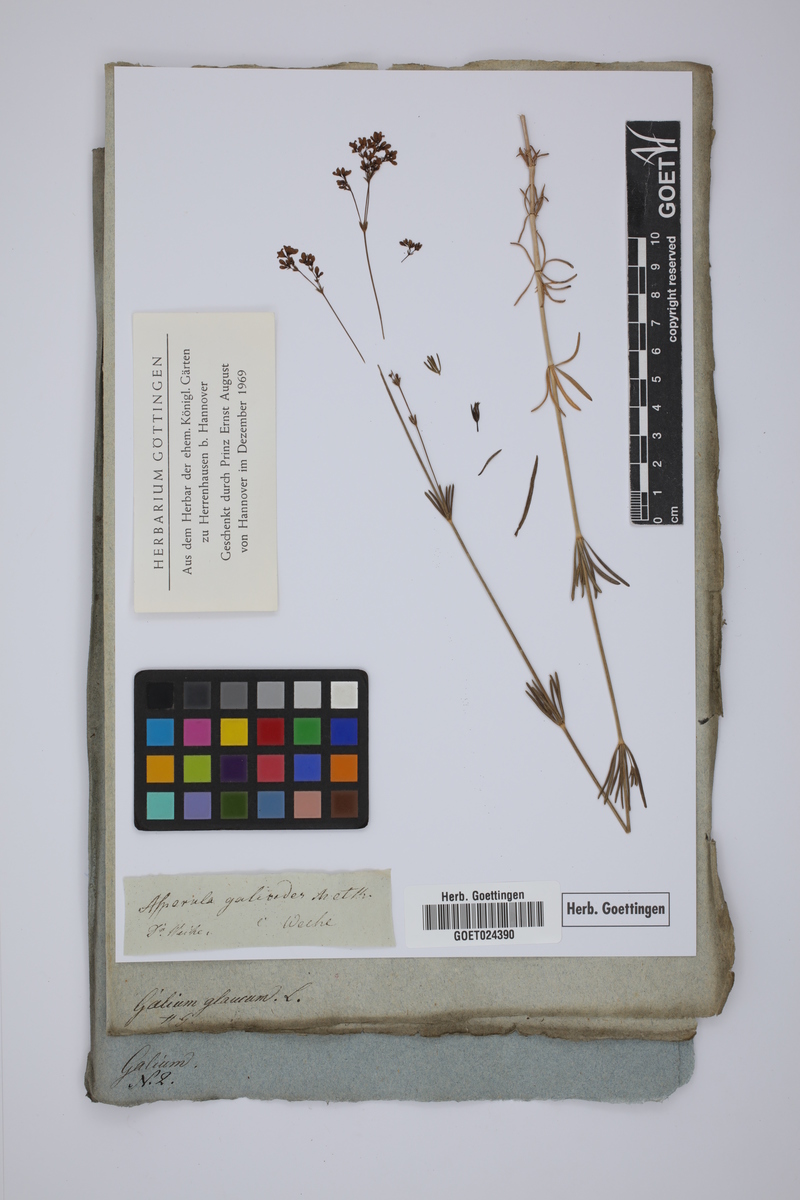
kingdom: Plantae
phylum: Tracheophyta
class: Magnoliopsida
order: Gentianales
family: Rubiaceae
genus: Asperula
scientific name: Asperula galioides
